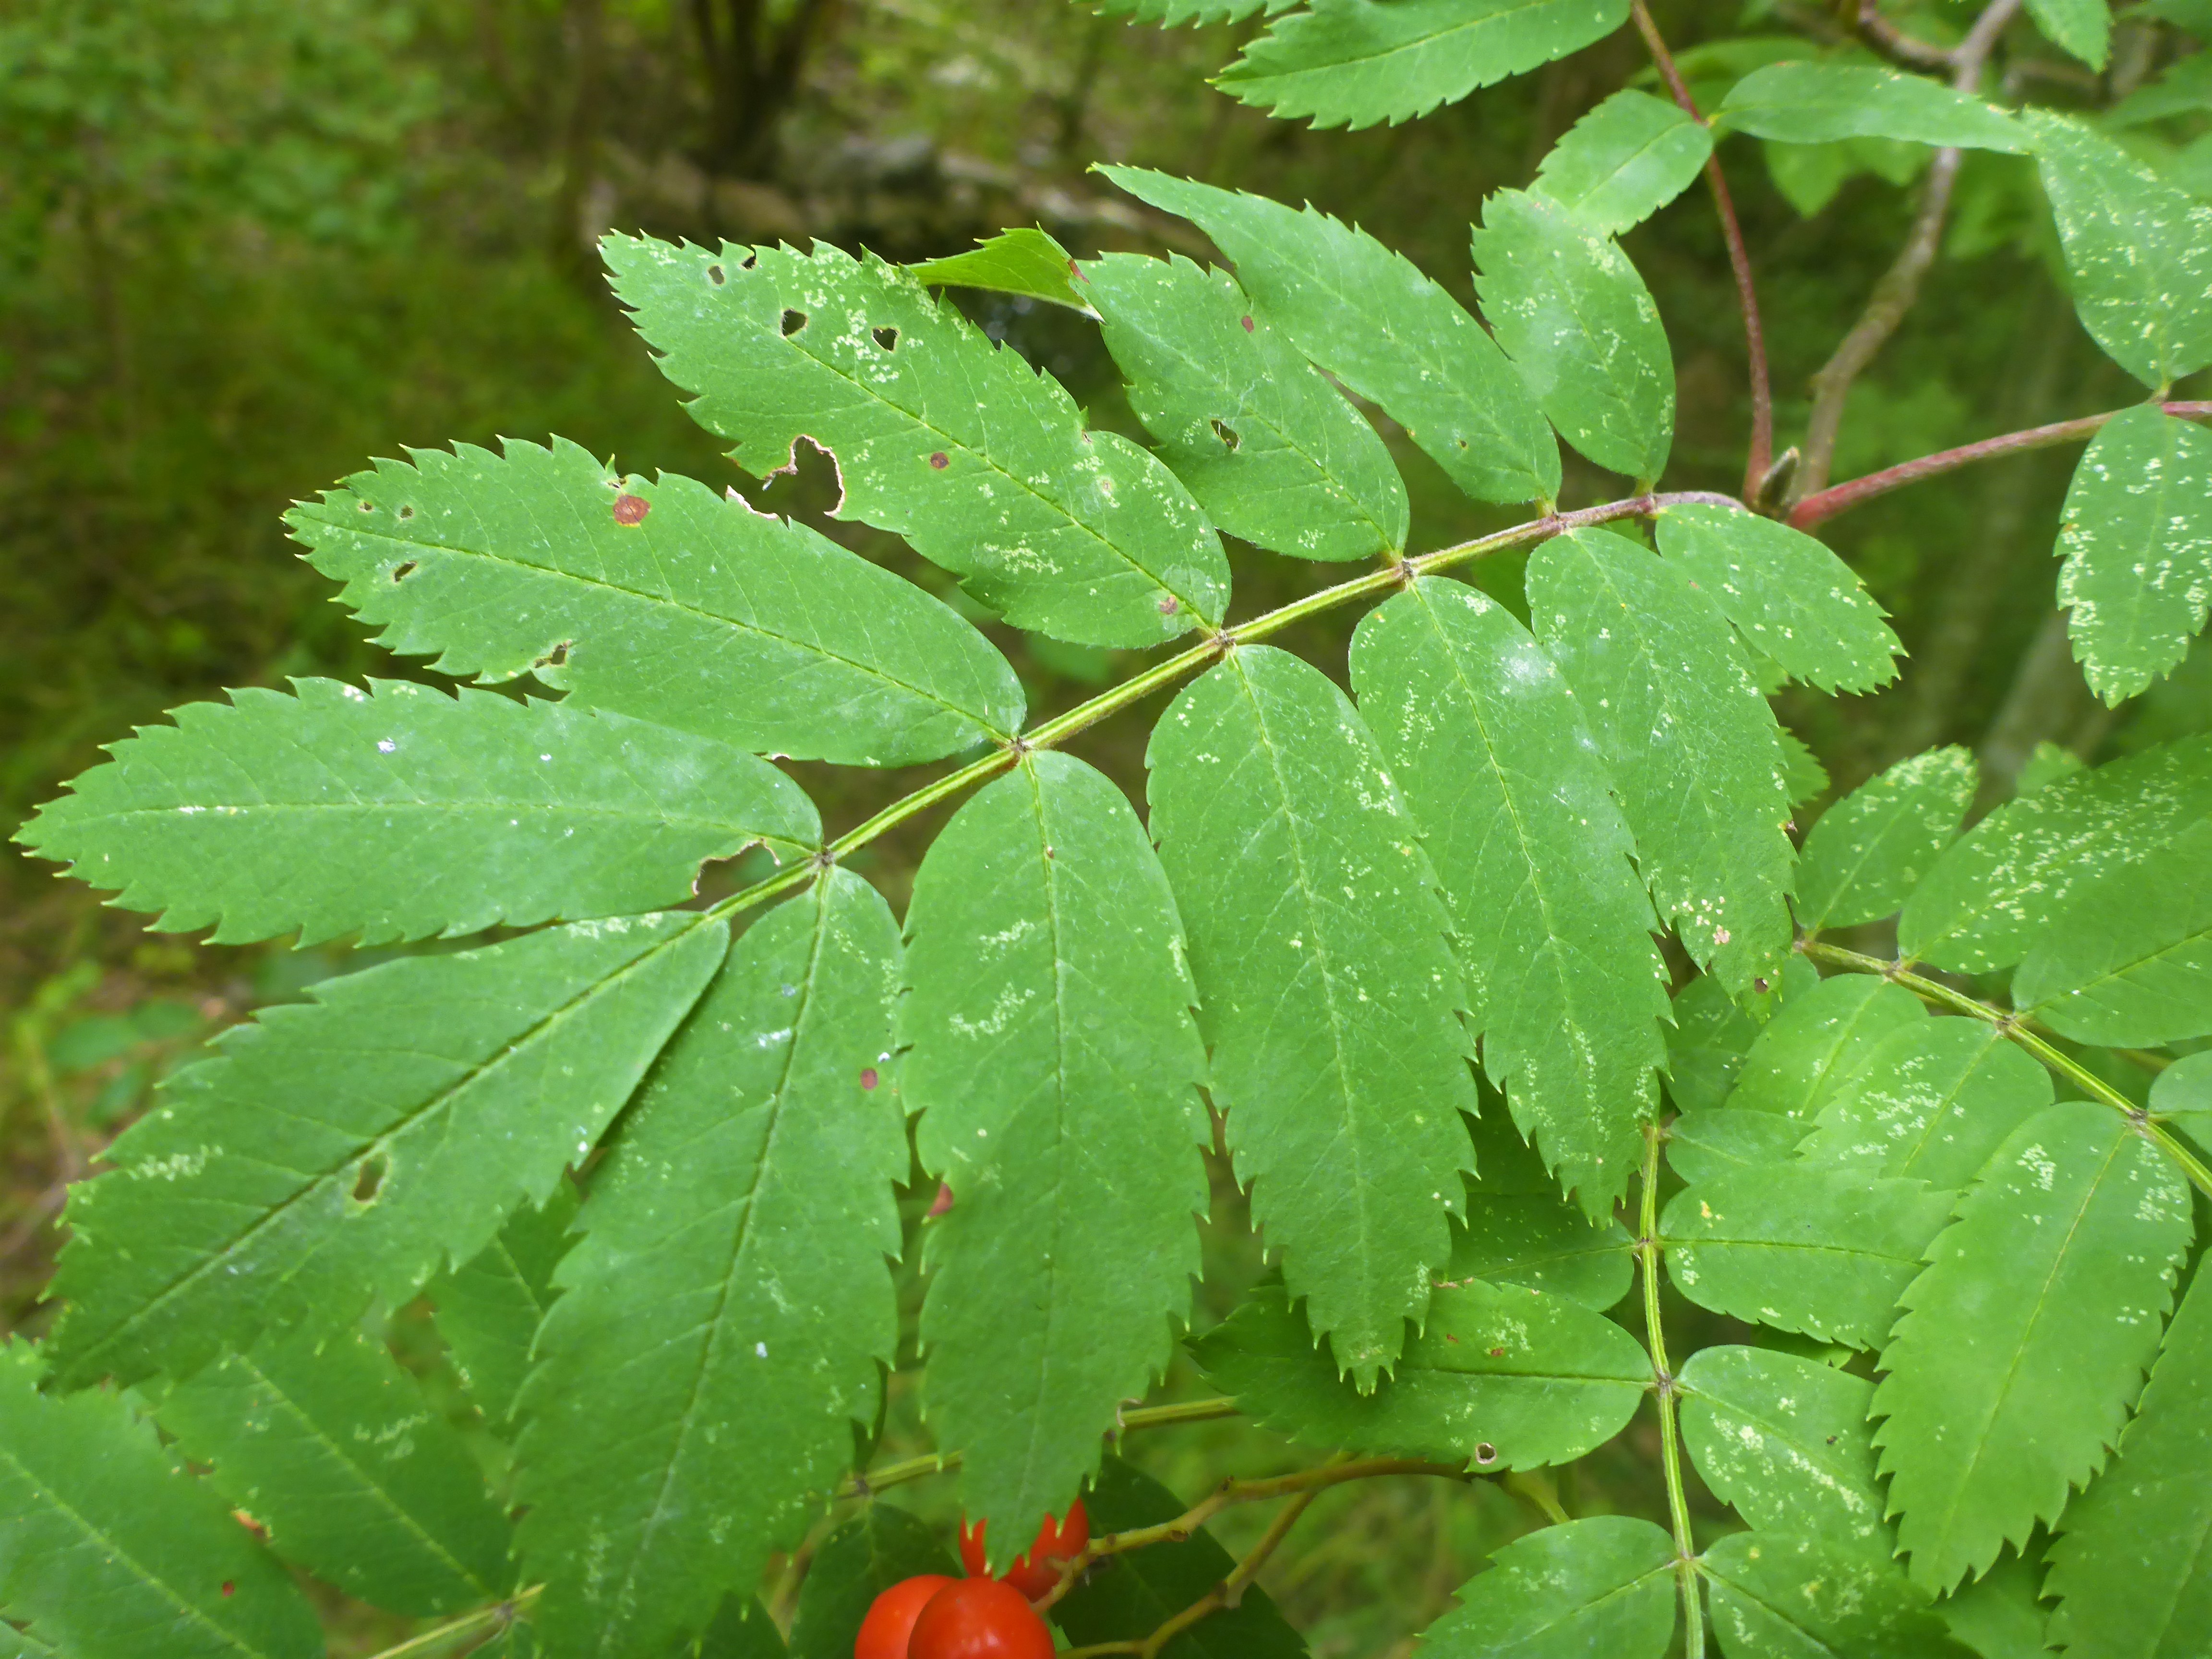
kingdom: Plantae
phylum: Tracheophyta
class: Magnoliopsida
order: Rosales
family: Rosaceae
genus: Sorbus
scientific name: Sorbus aucuparia
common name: Almindelig røn
